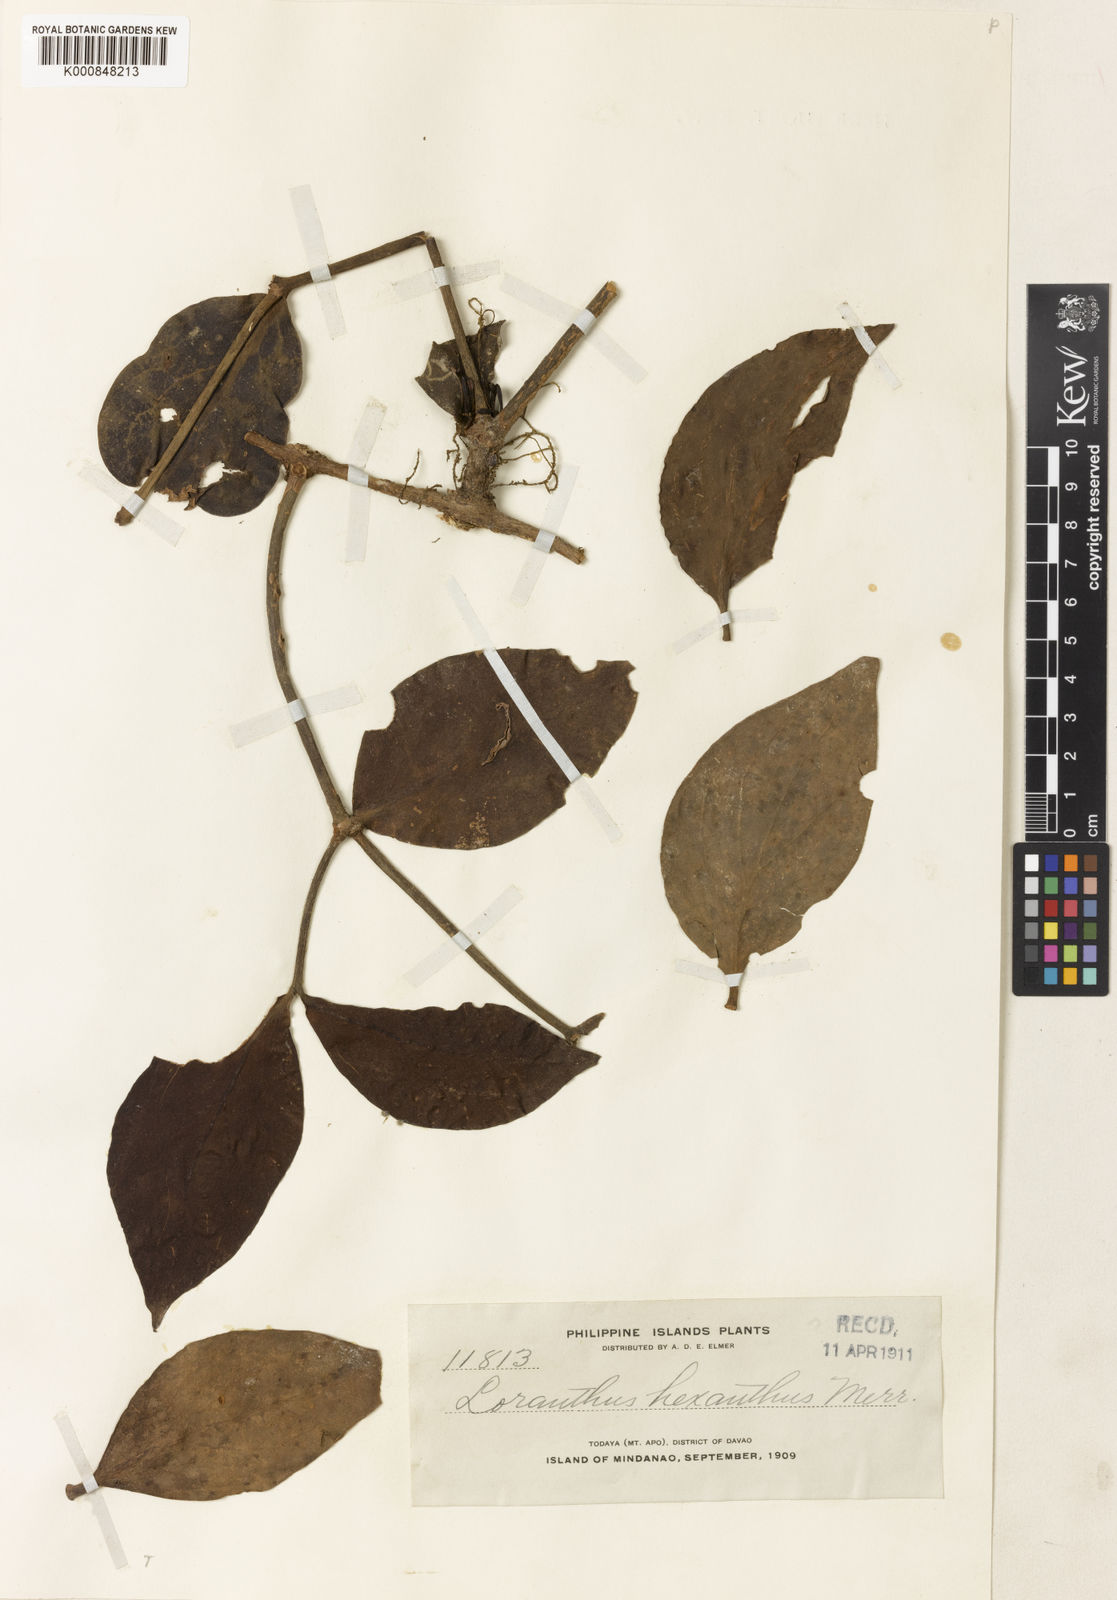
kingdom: Plantae
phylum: Tracheophyta
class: Magnoliopsida
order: Santalales
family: Loranthaceae
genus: Amyema
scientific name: Amyema hexantha
